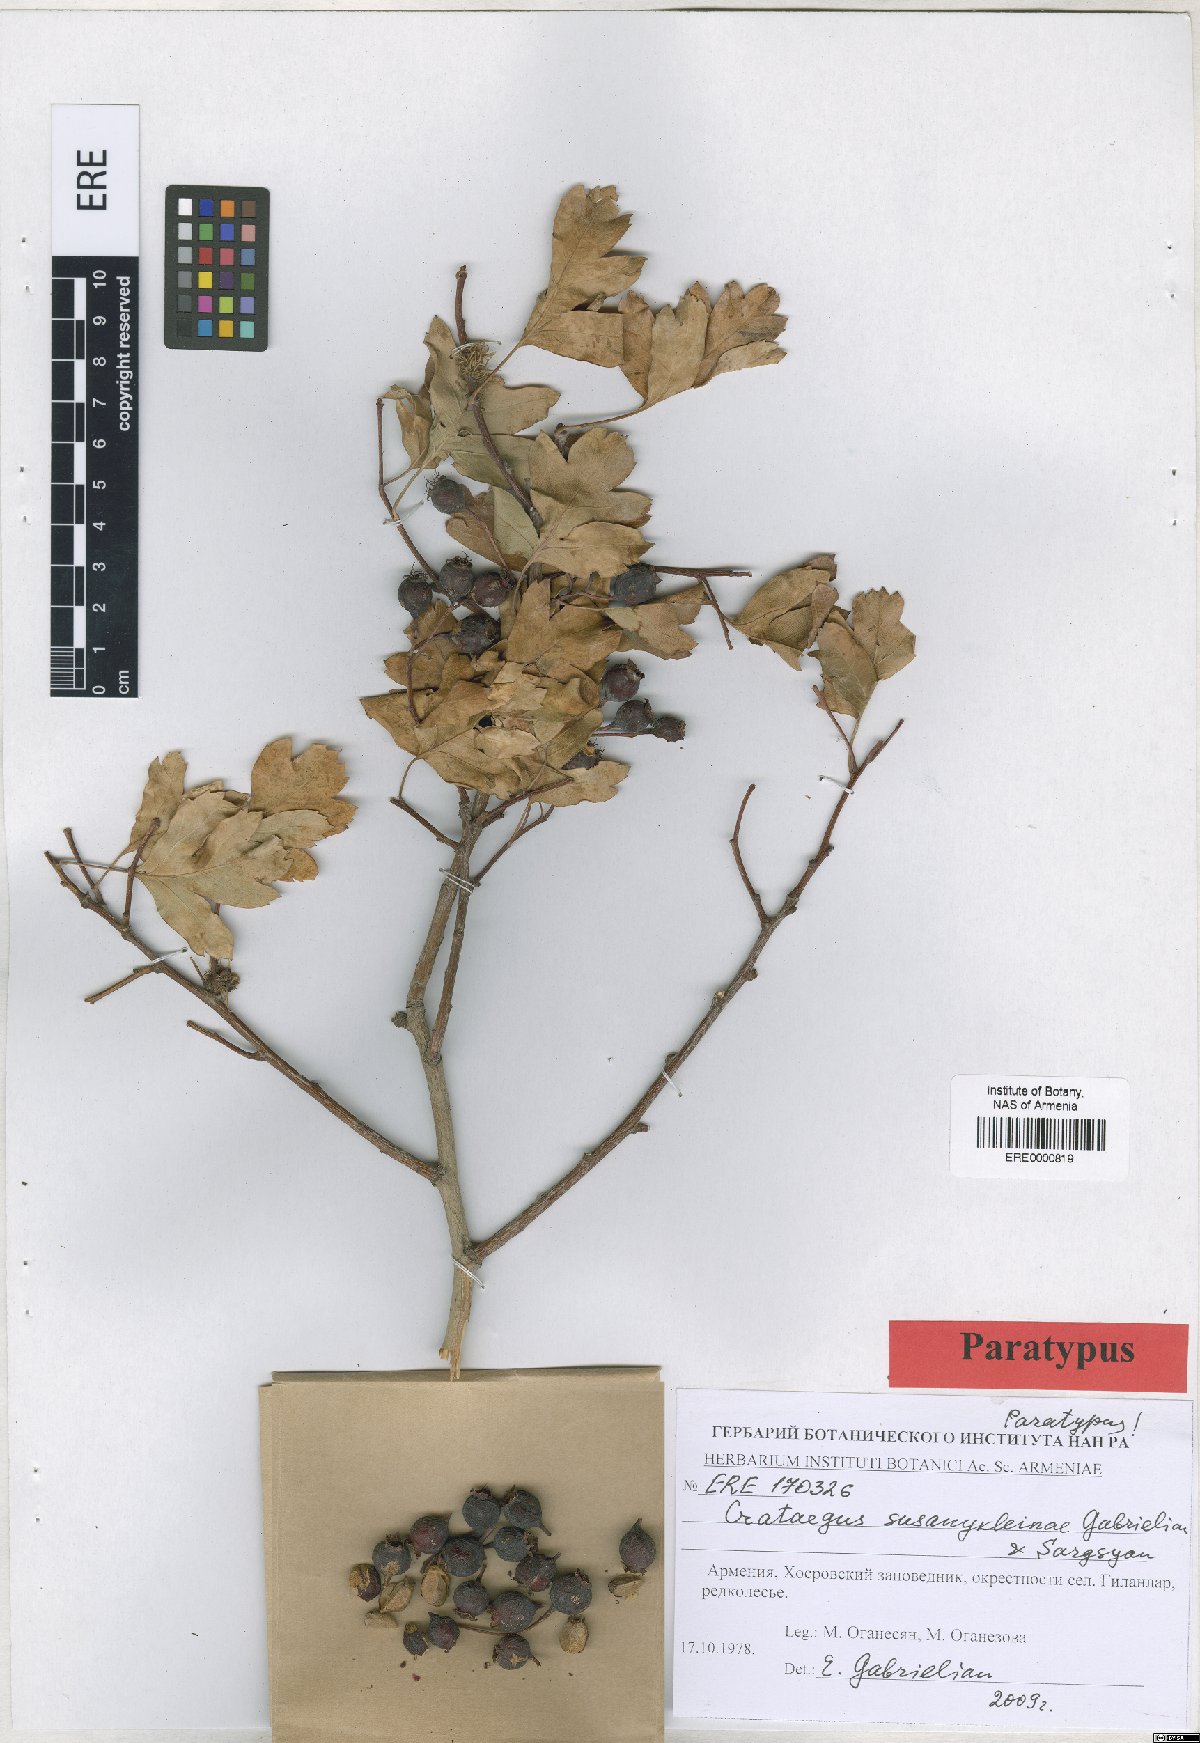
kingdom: Plantae
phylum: Tracheophyta
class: Magnoliopsida
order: Rosales
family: Rosaceae
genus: Crataegus
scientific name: Crataegus
